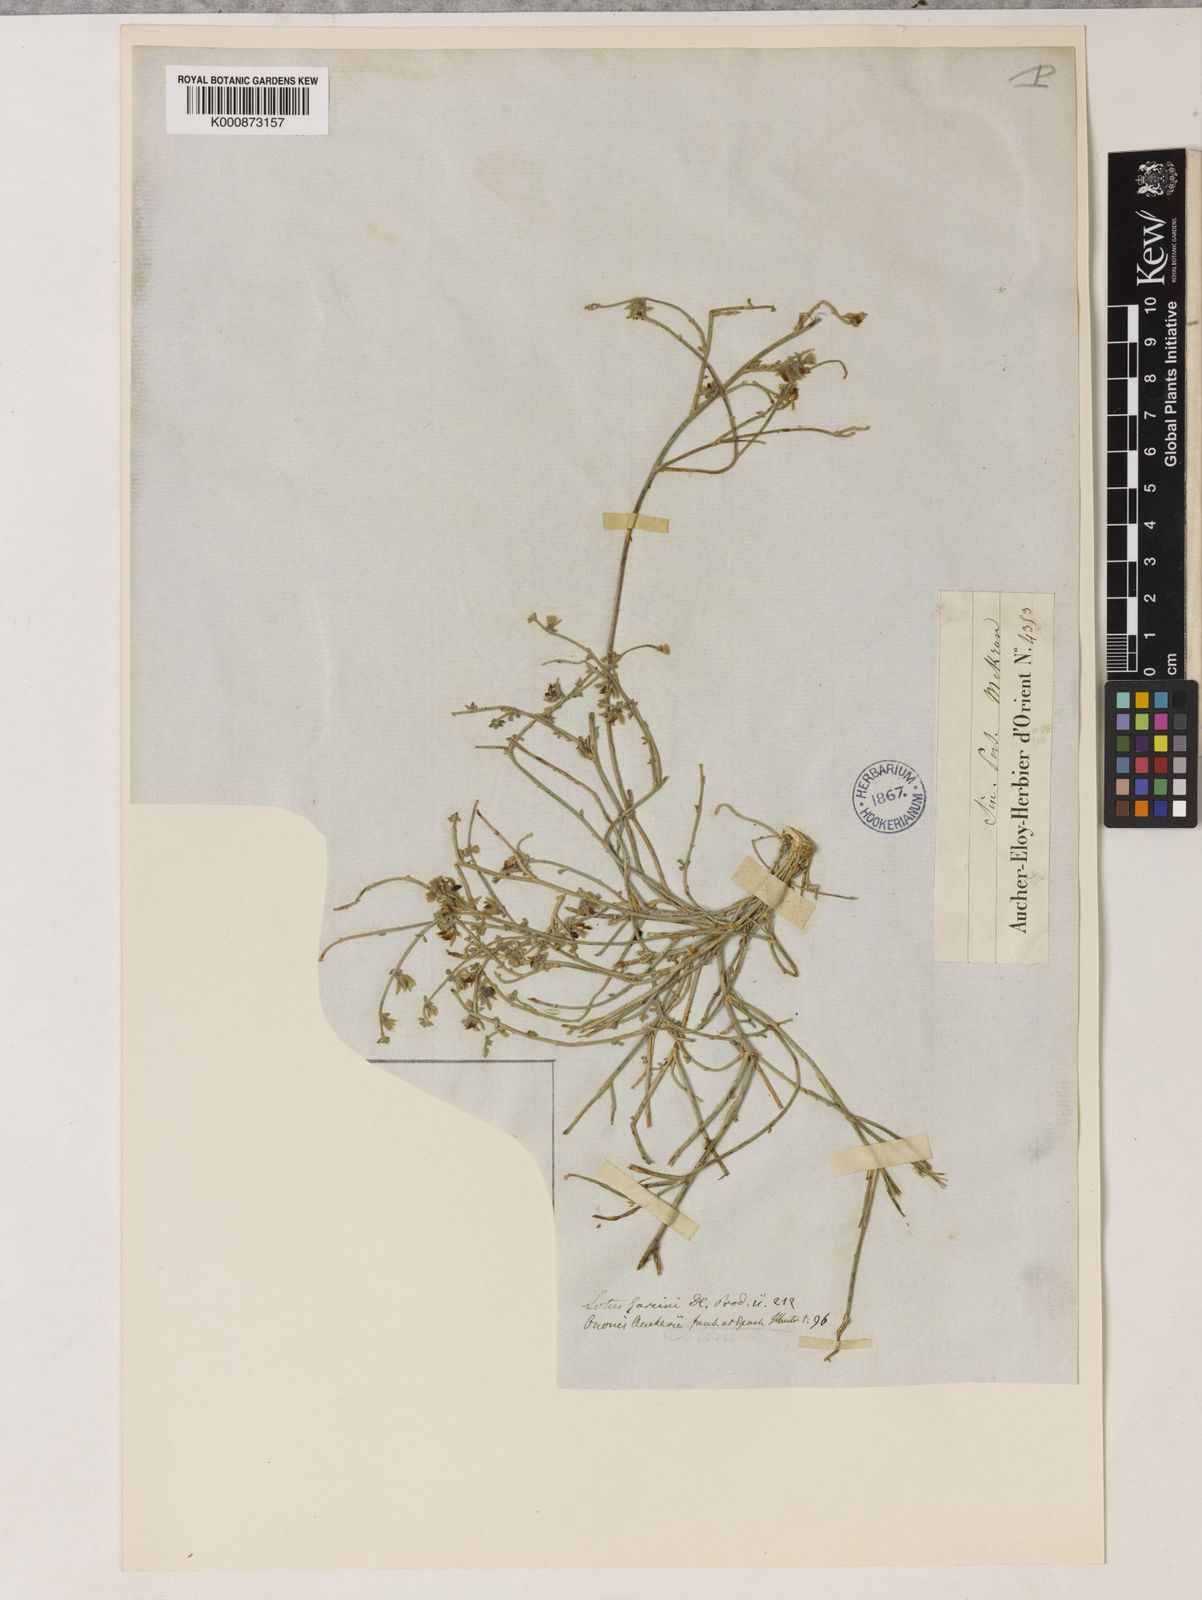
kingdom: Plantae
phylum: Tracheophyta
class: Magnoliopsida
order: Fabales
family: Fabaceae
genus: Lotus
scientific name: Lotus
